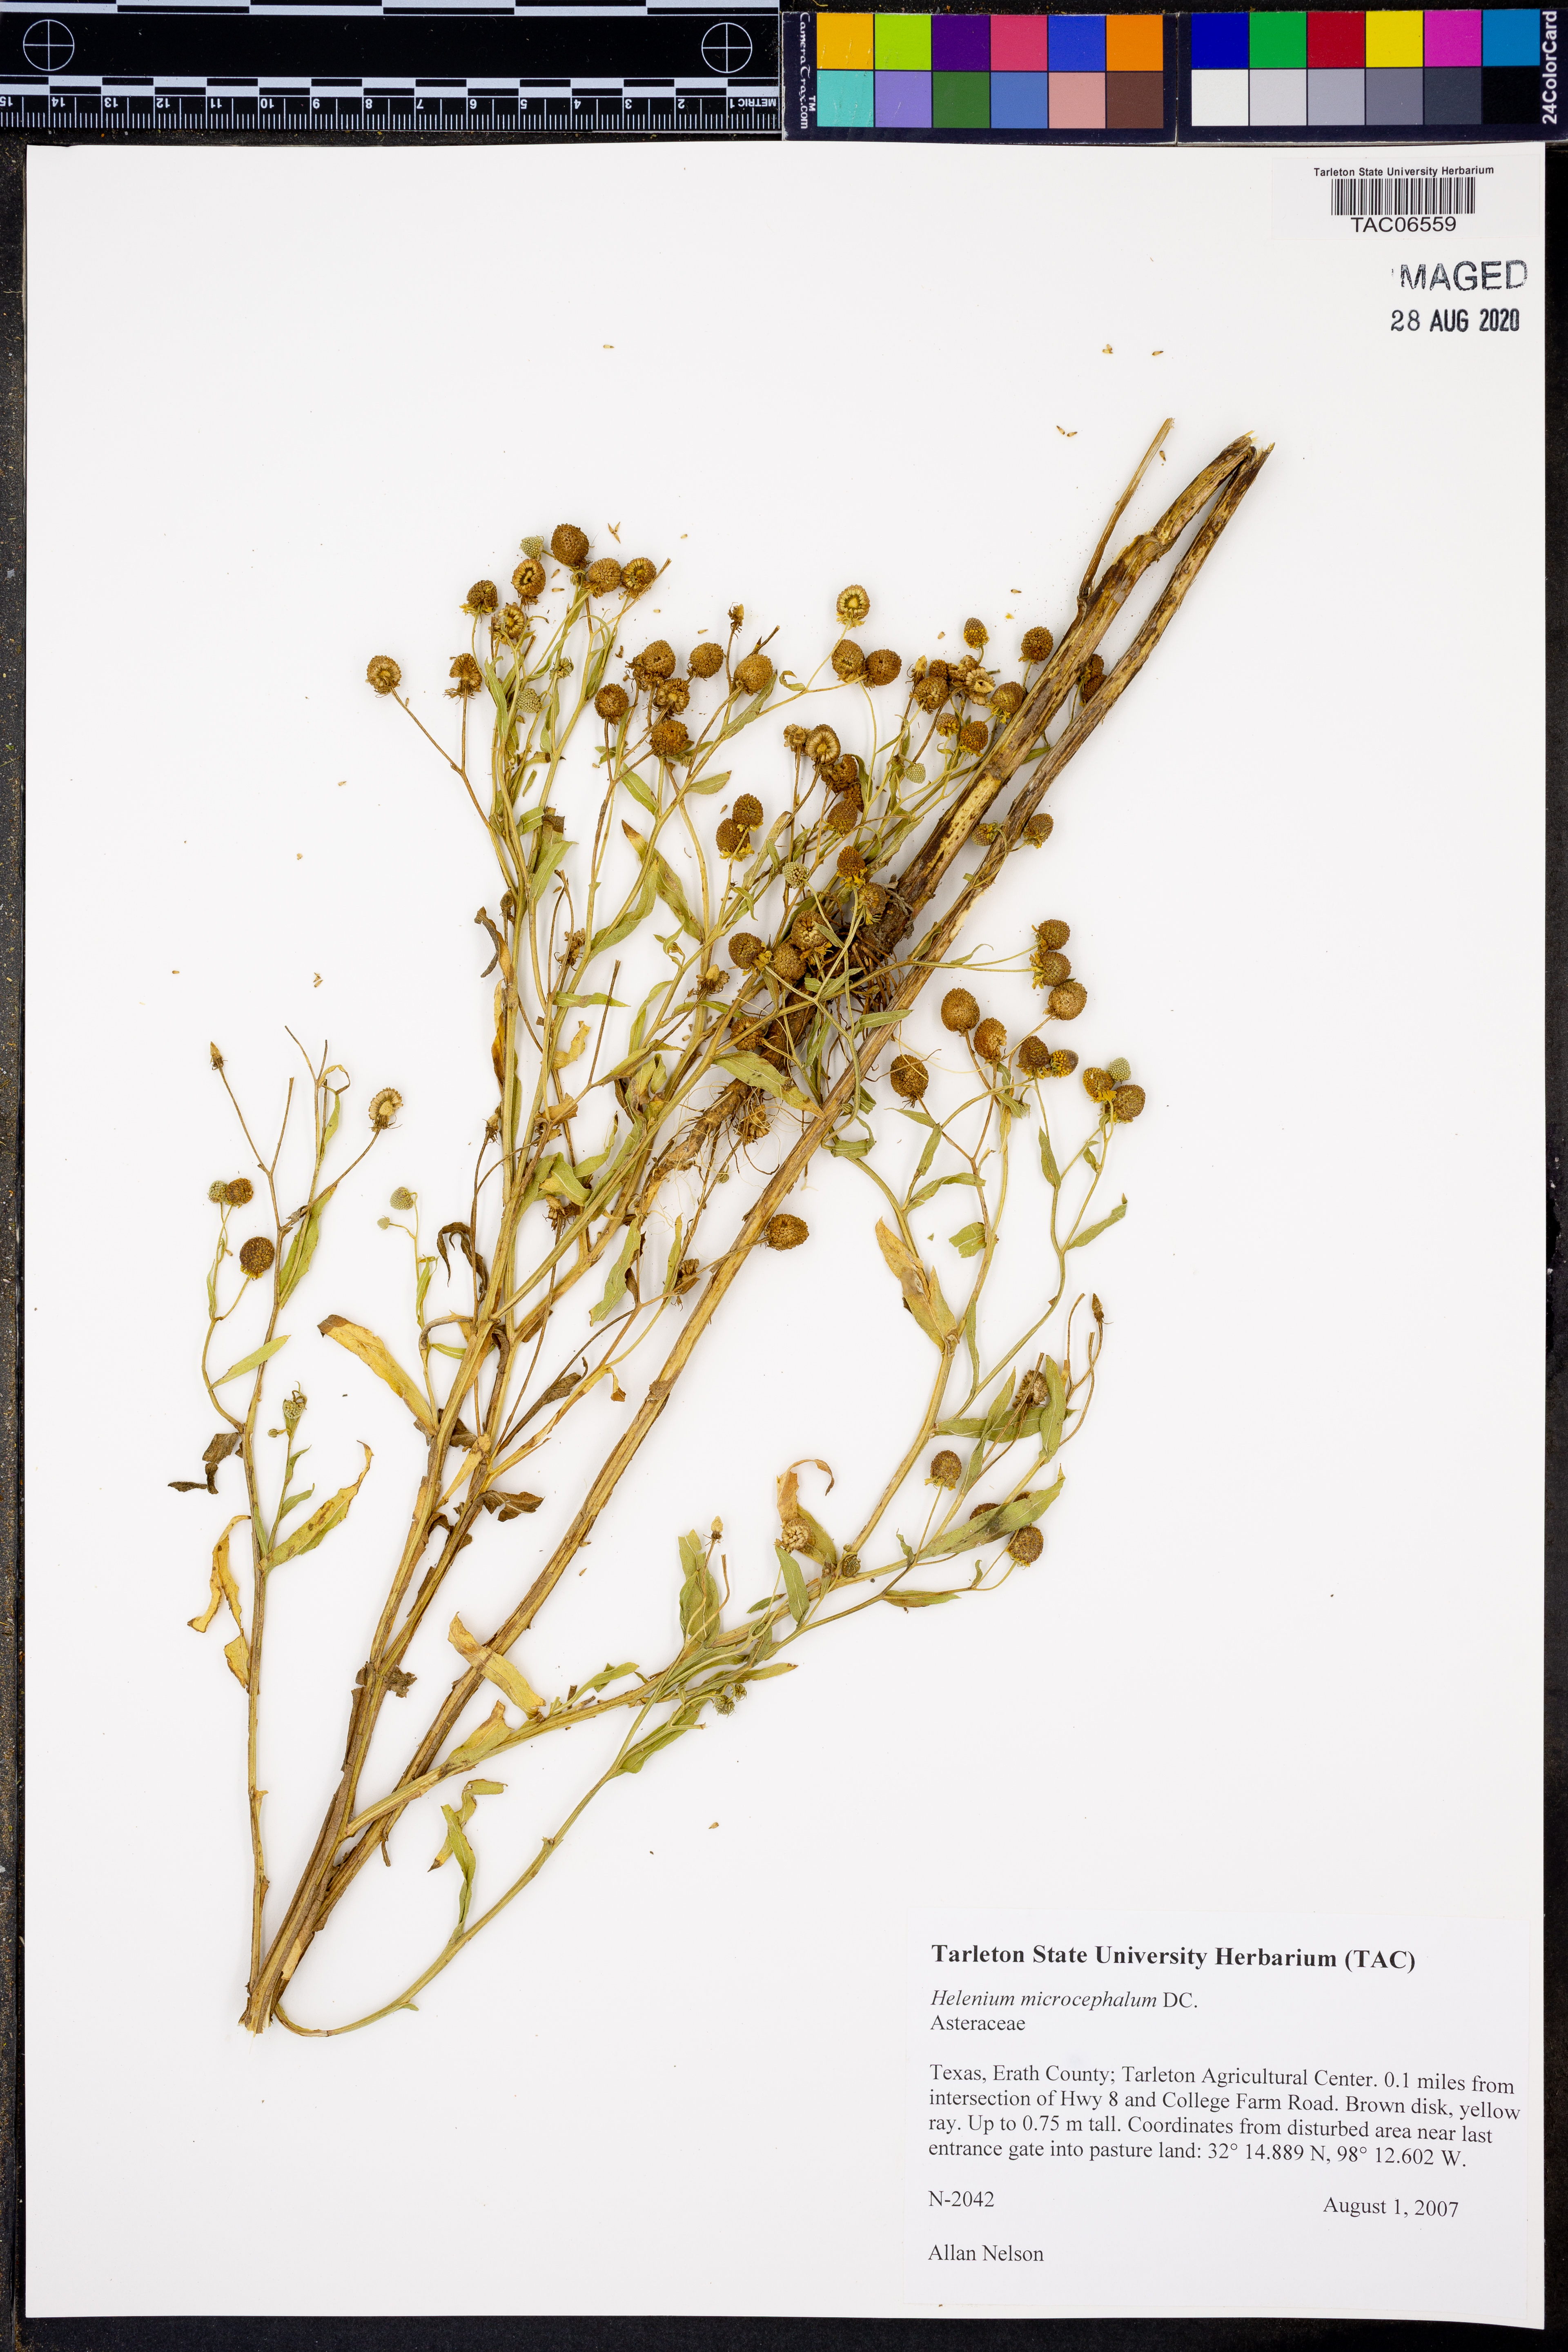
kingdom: Plantae
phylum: Tracheophyta
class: Magnoliopsida
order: Asterales
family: Asteraceae
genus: Helenium
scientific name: Helenium microcephalum
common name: Smallhead sneezeweed
